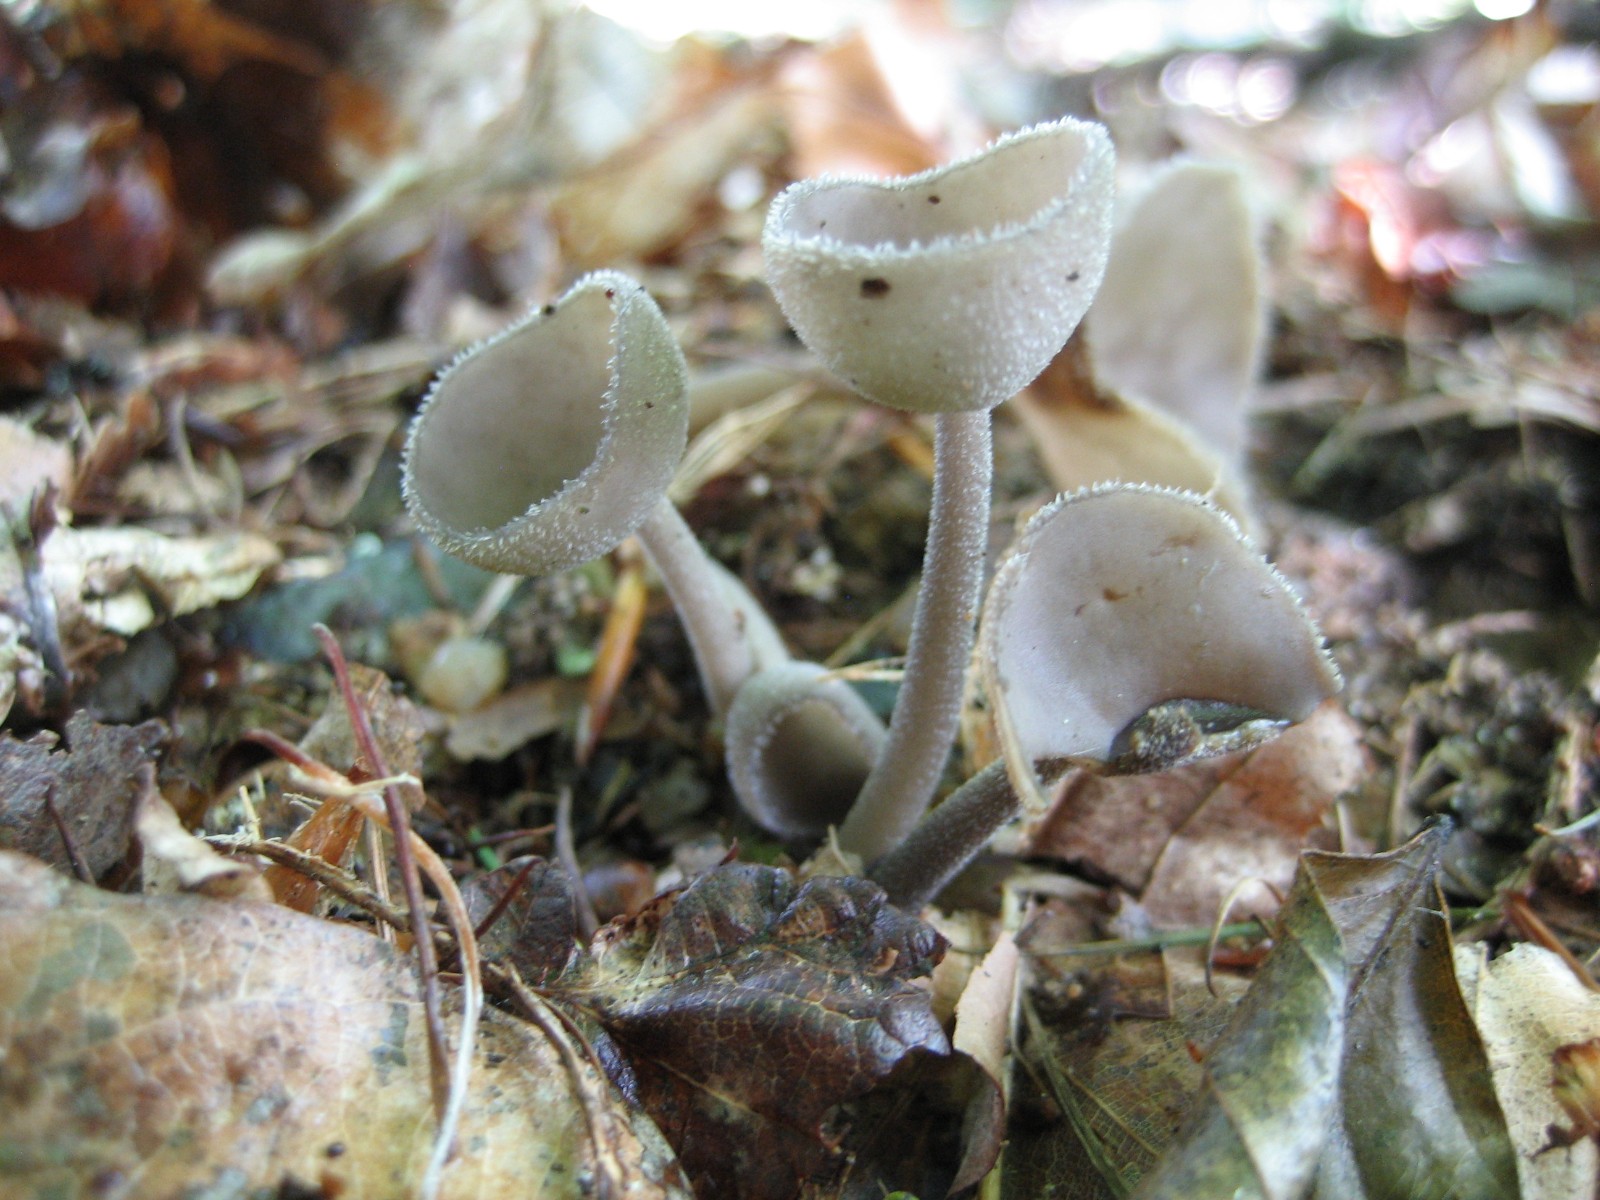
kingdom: Fungi
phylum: Ascomycota
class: Pezizomycetes
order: Pezizales
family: Helvellaceae
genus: Helvella
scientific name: Helvella
